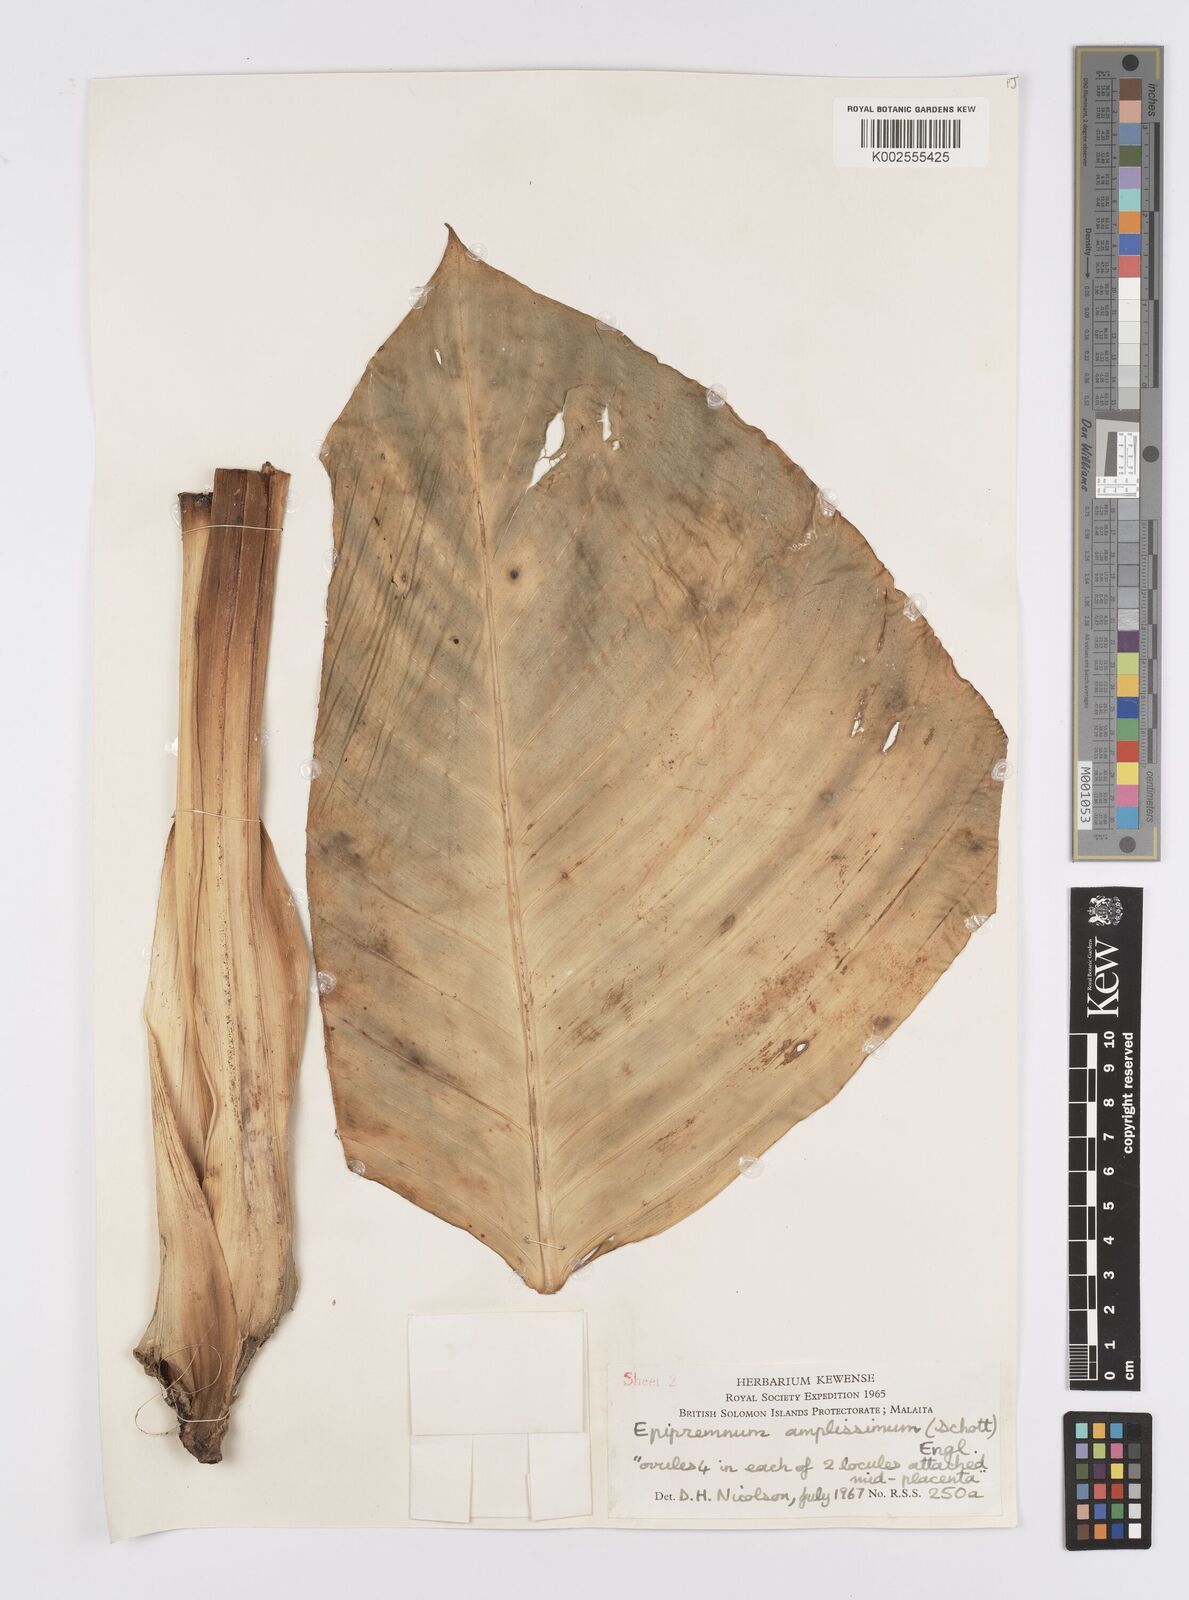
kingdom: Plantae
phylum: Tracheophyta
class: Liliopsida
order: Alismatales
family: Araceae
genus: Epipremnum
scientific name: Epipremnum amplissimum
